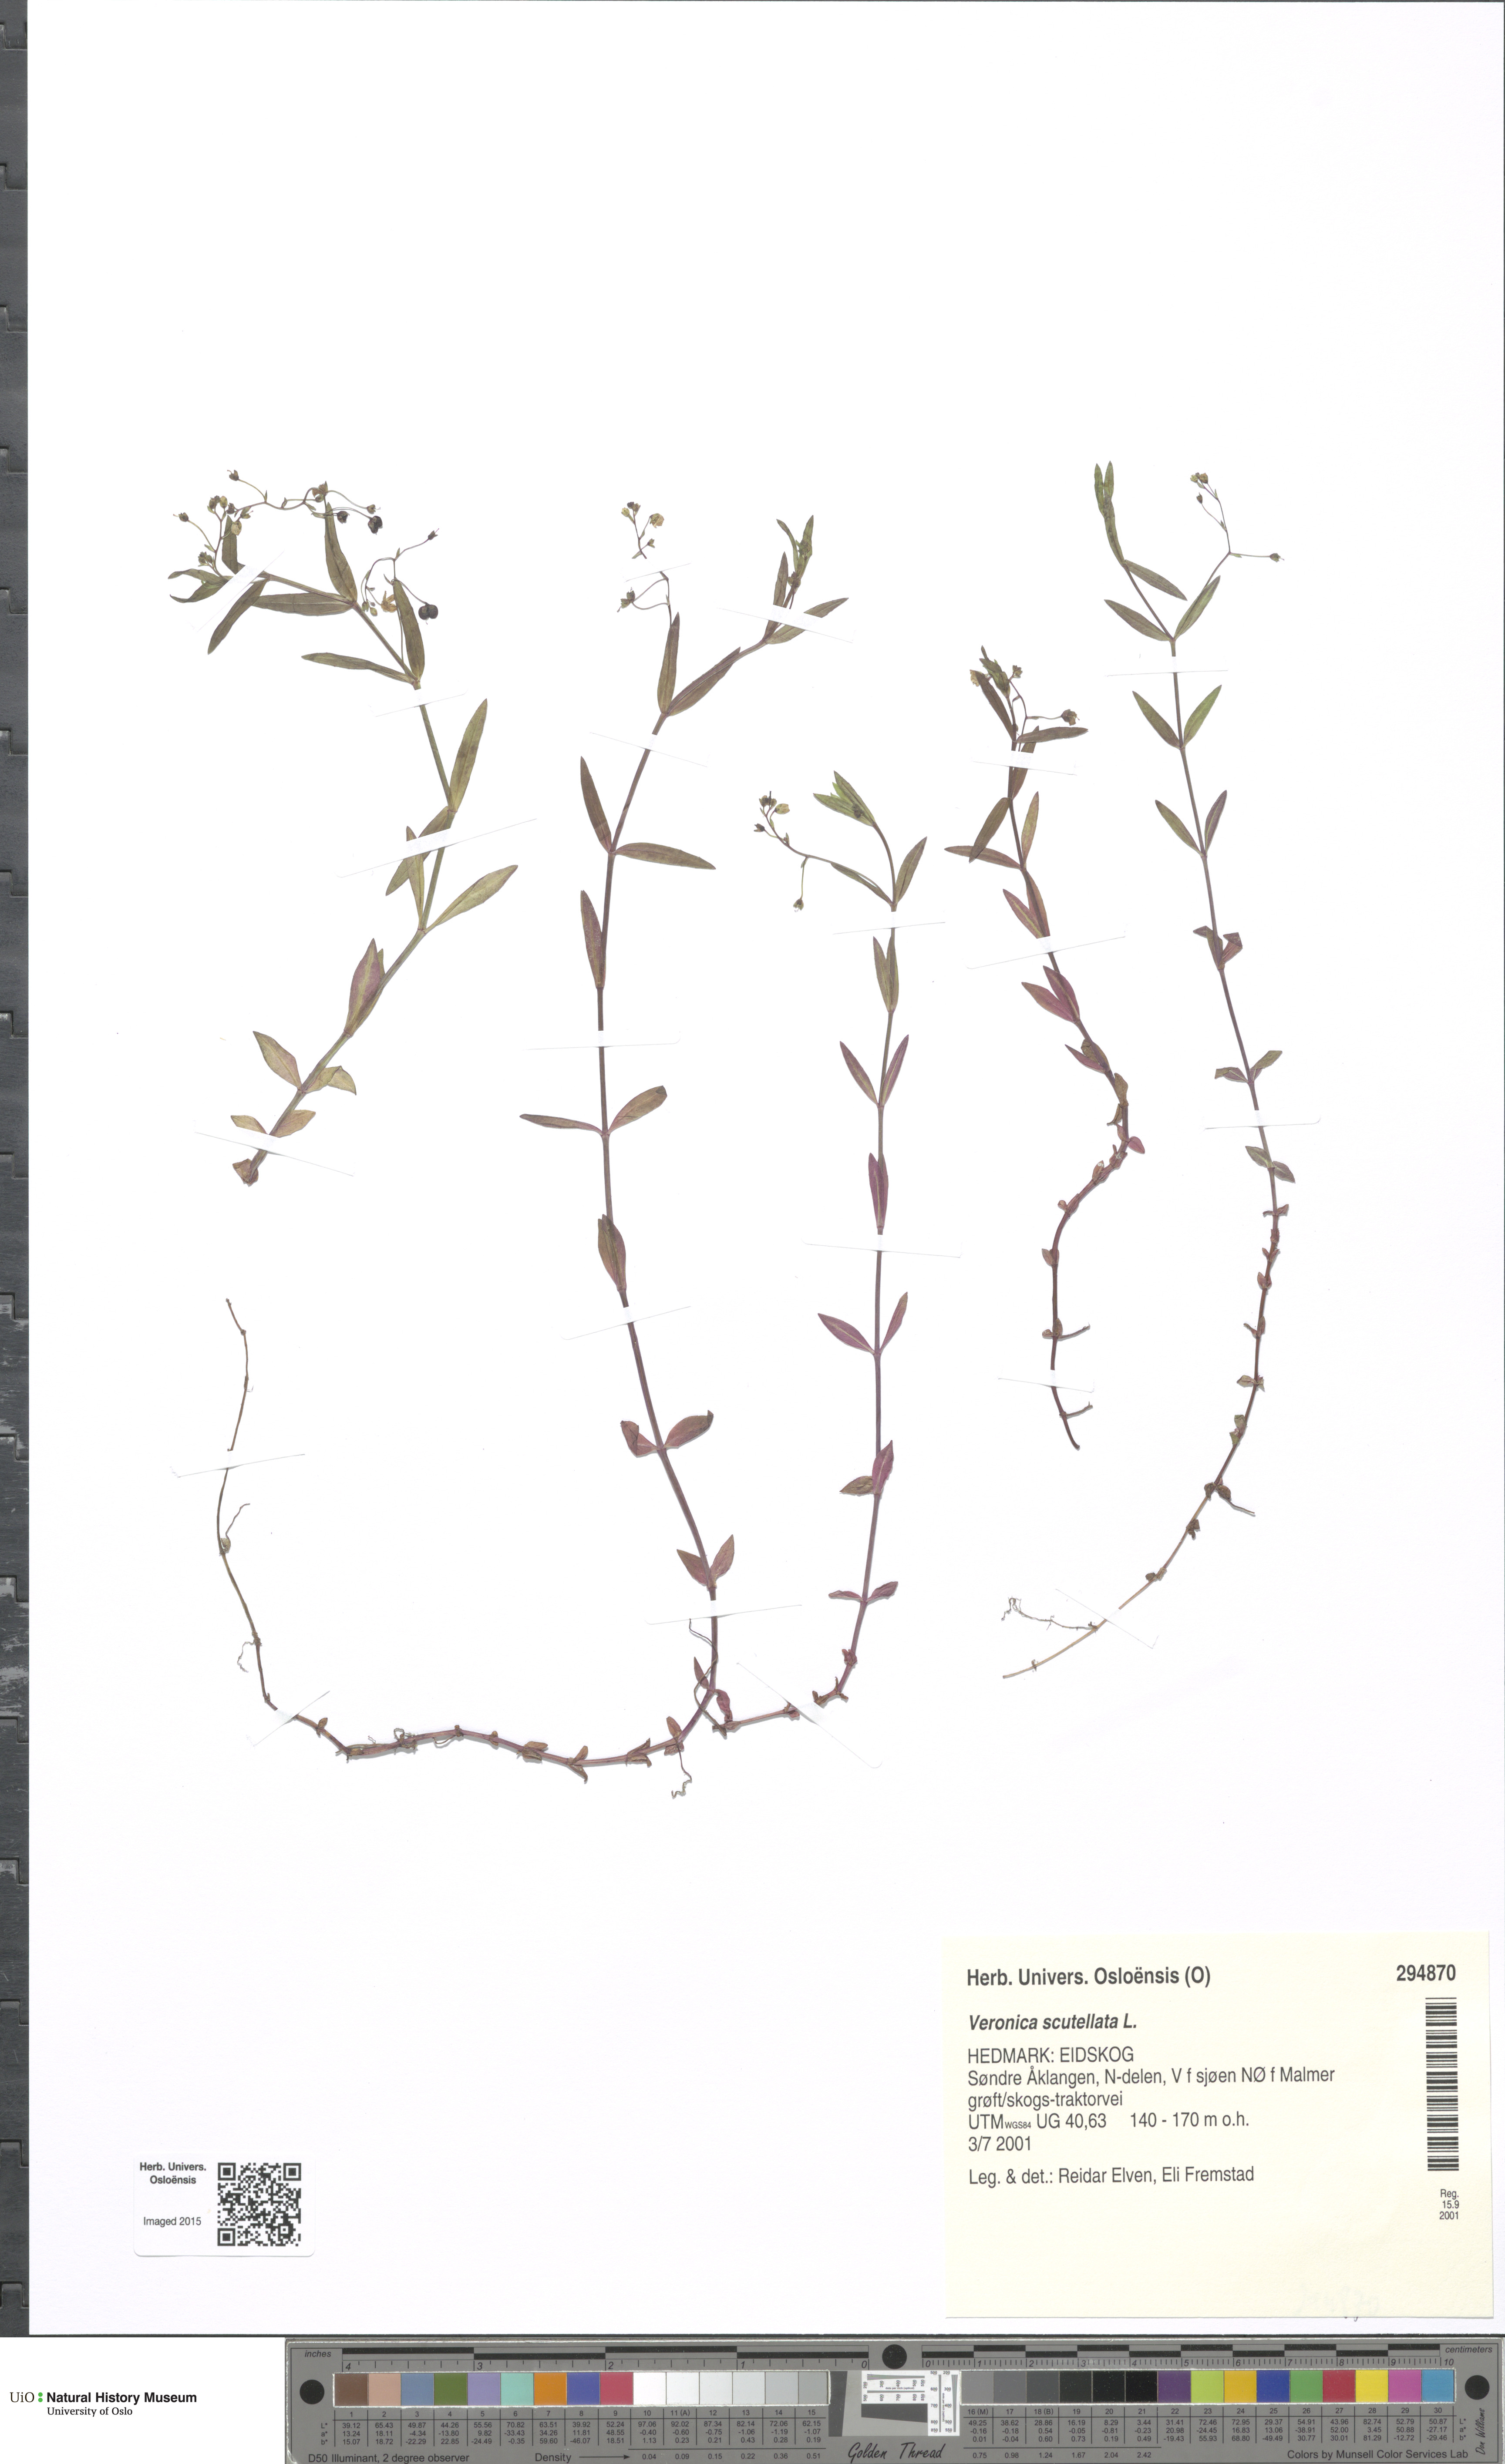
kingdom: Plantae
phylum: Tracheophyta
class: Magnoliopsida
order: Lamiales
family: Plantaginaceae
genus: Veronica
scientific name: Veronica scutellata
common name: Marsh speedwell
